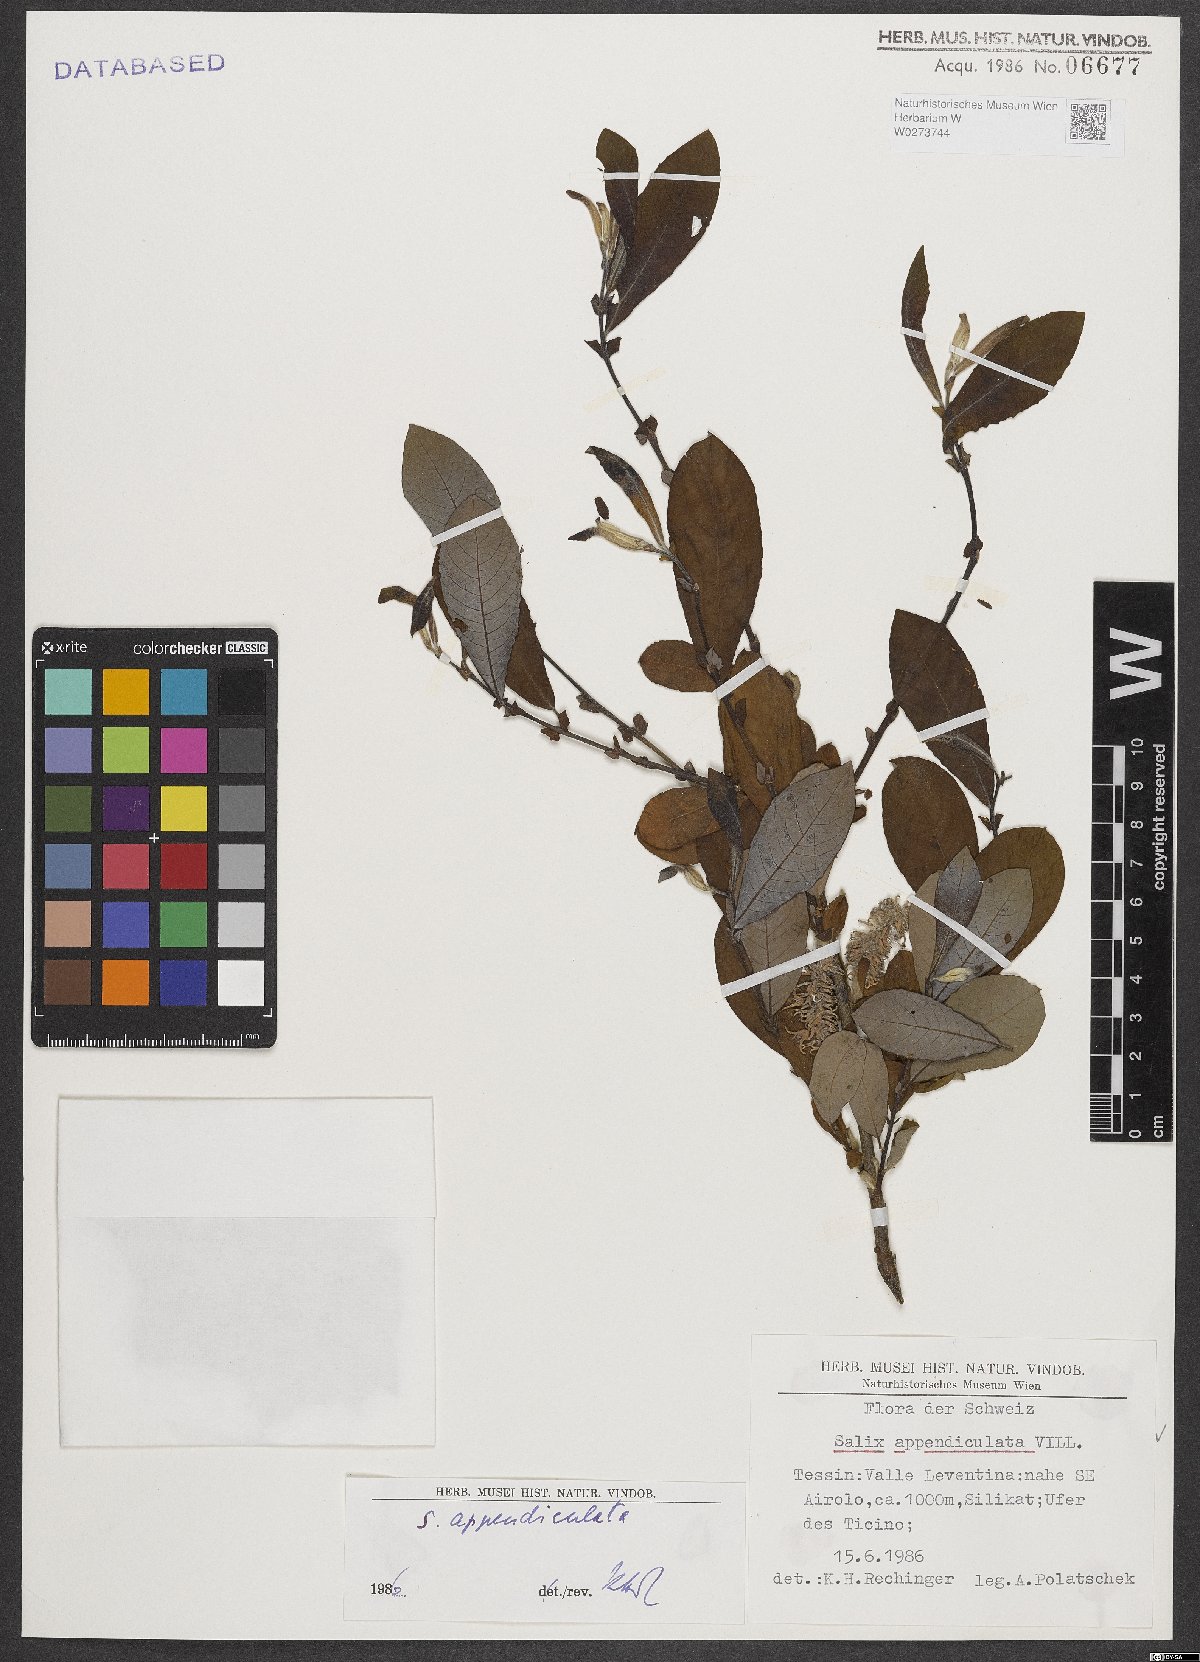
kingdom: Plantae
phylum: Tracheophyta
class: Magnoliopsida
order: Malpighiales
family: Salicaceae
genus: Salix
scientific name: Salix appendiculata
